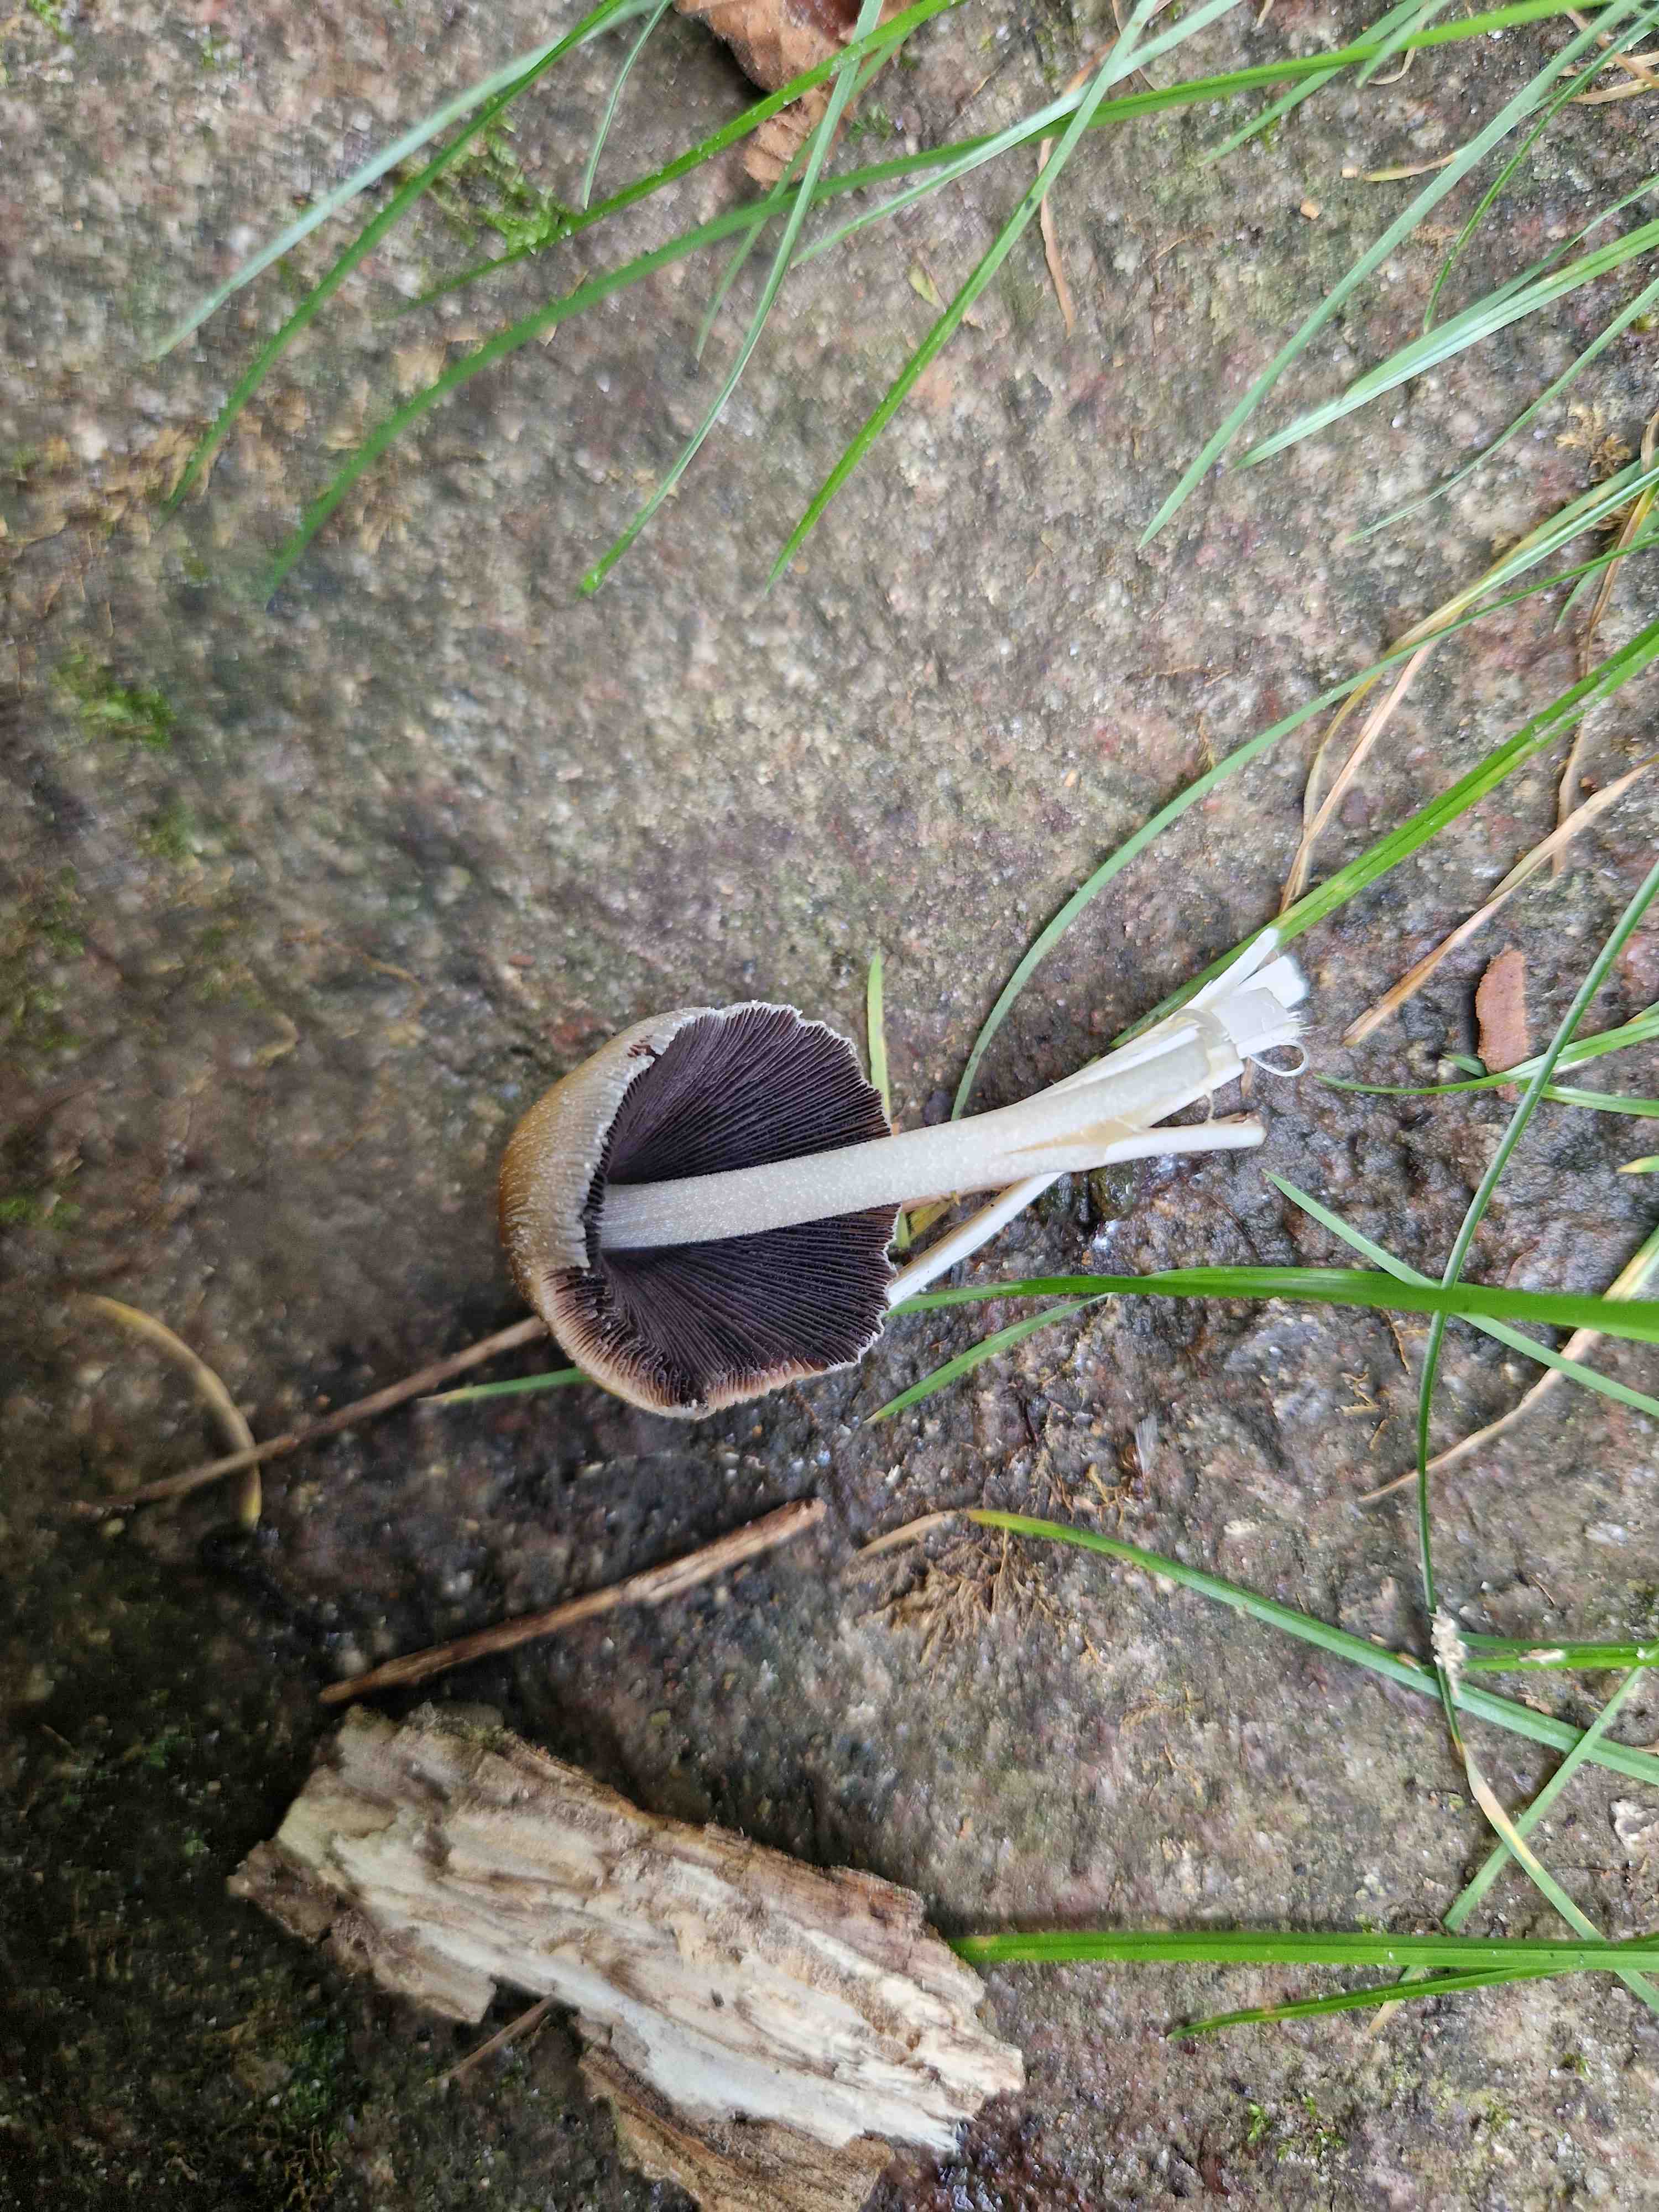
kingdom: Fungi
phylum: Basidiomycota
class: Agaricomycetes
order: Agaricales
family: Psathyrellaceae
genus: Coprinellus
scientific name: Coprinellus
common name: blækhat
